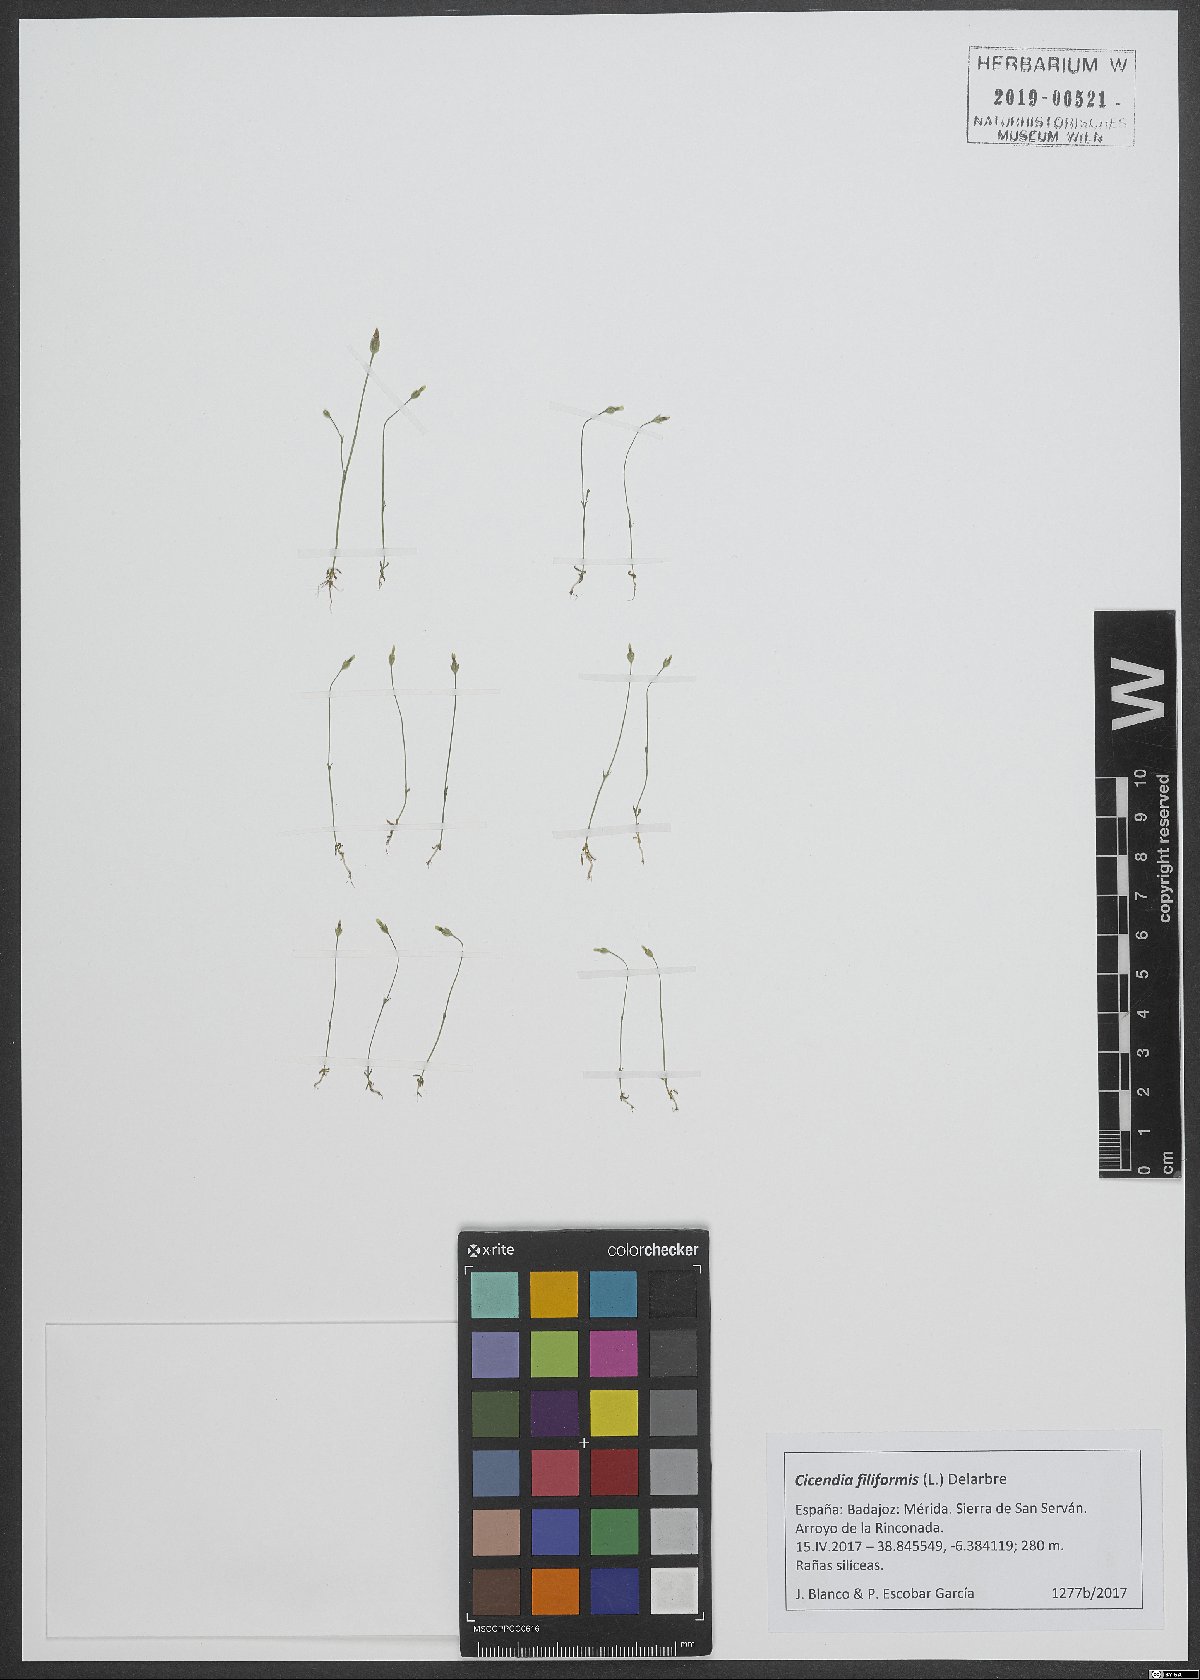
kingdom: Plantae
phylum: Tracheophyta
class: Magnoliopsida
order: Gentianales
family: Gentianaceae
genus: Cicendia
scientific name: Cicendia filiformis
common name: Yellow centaury
